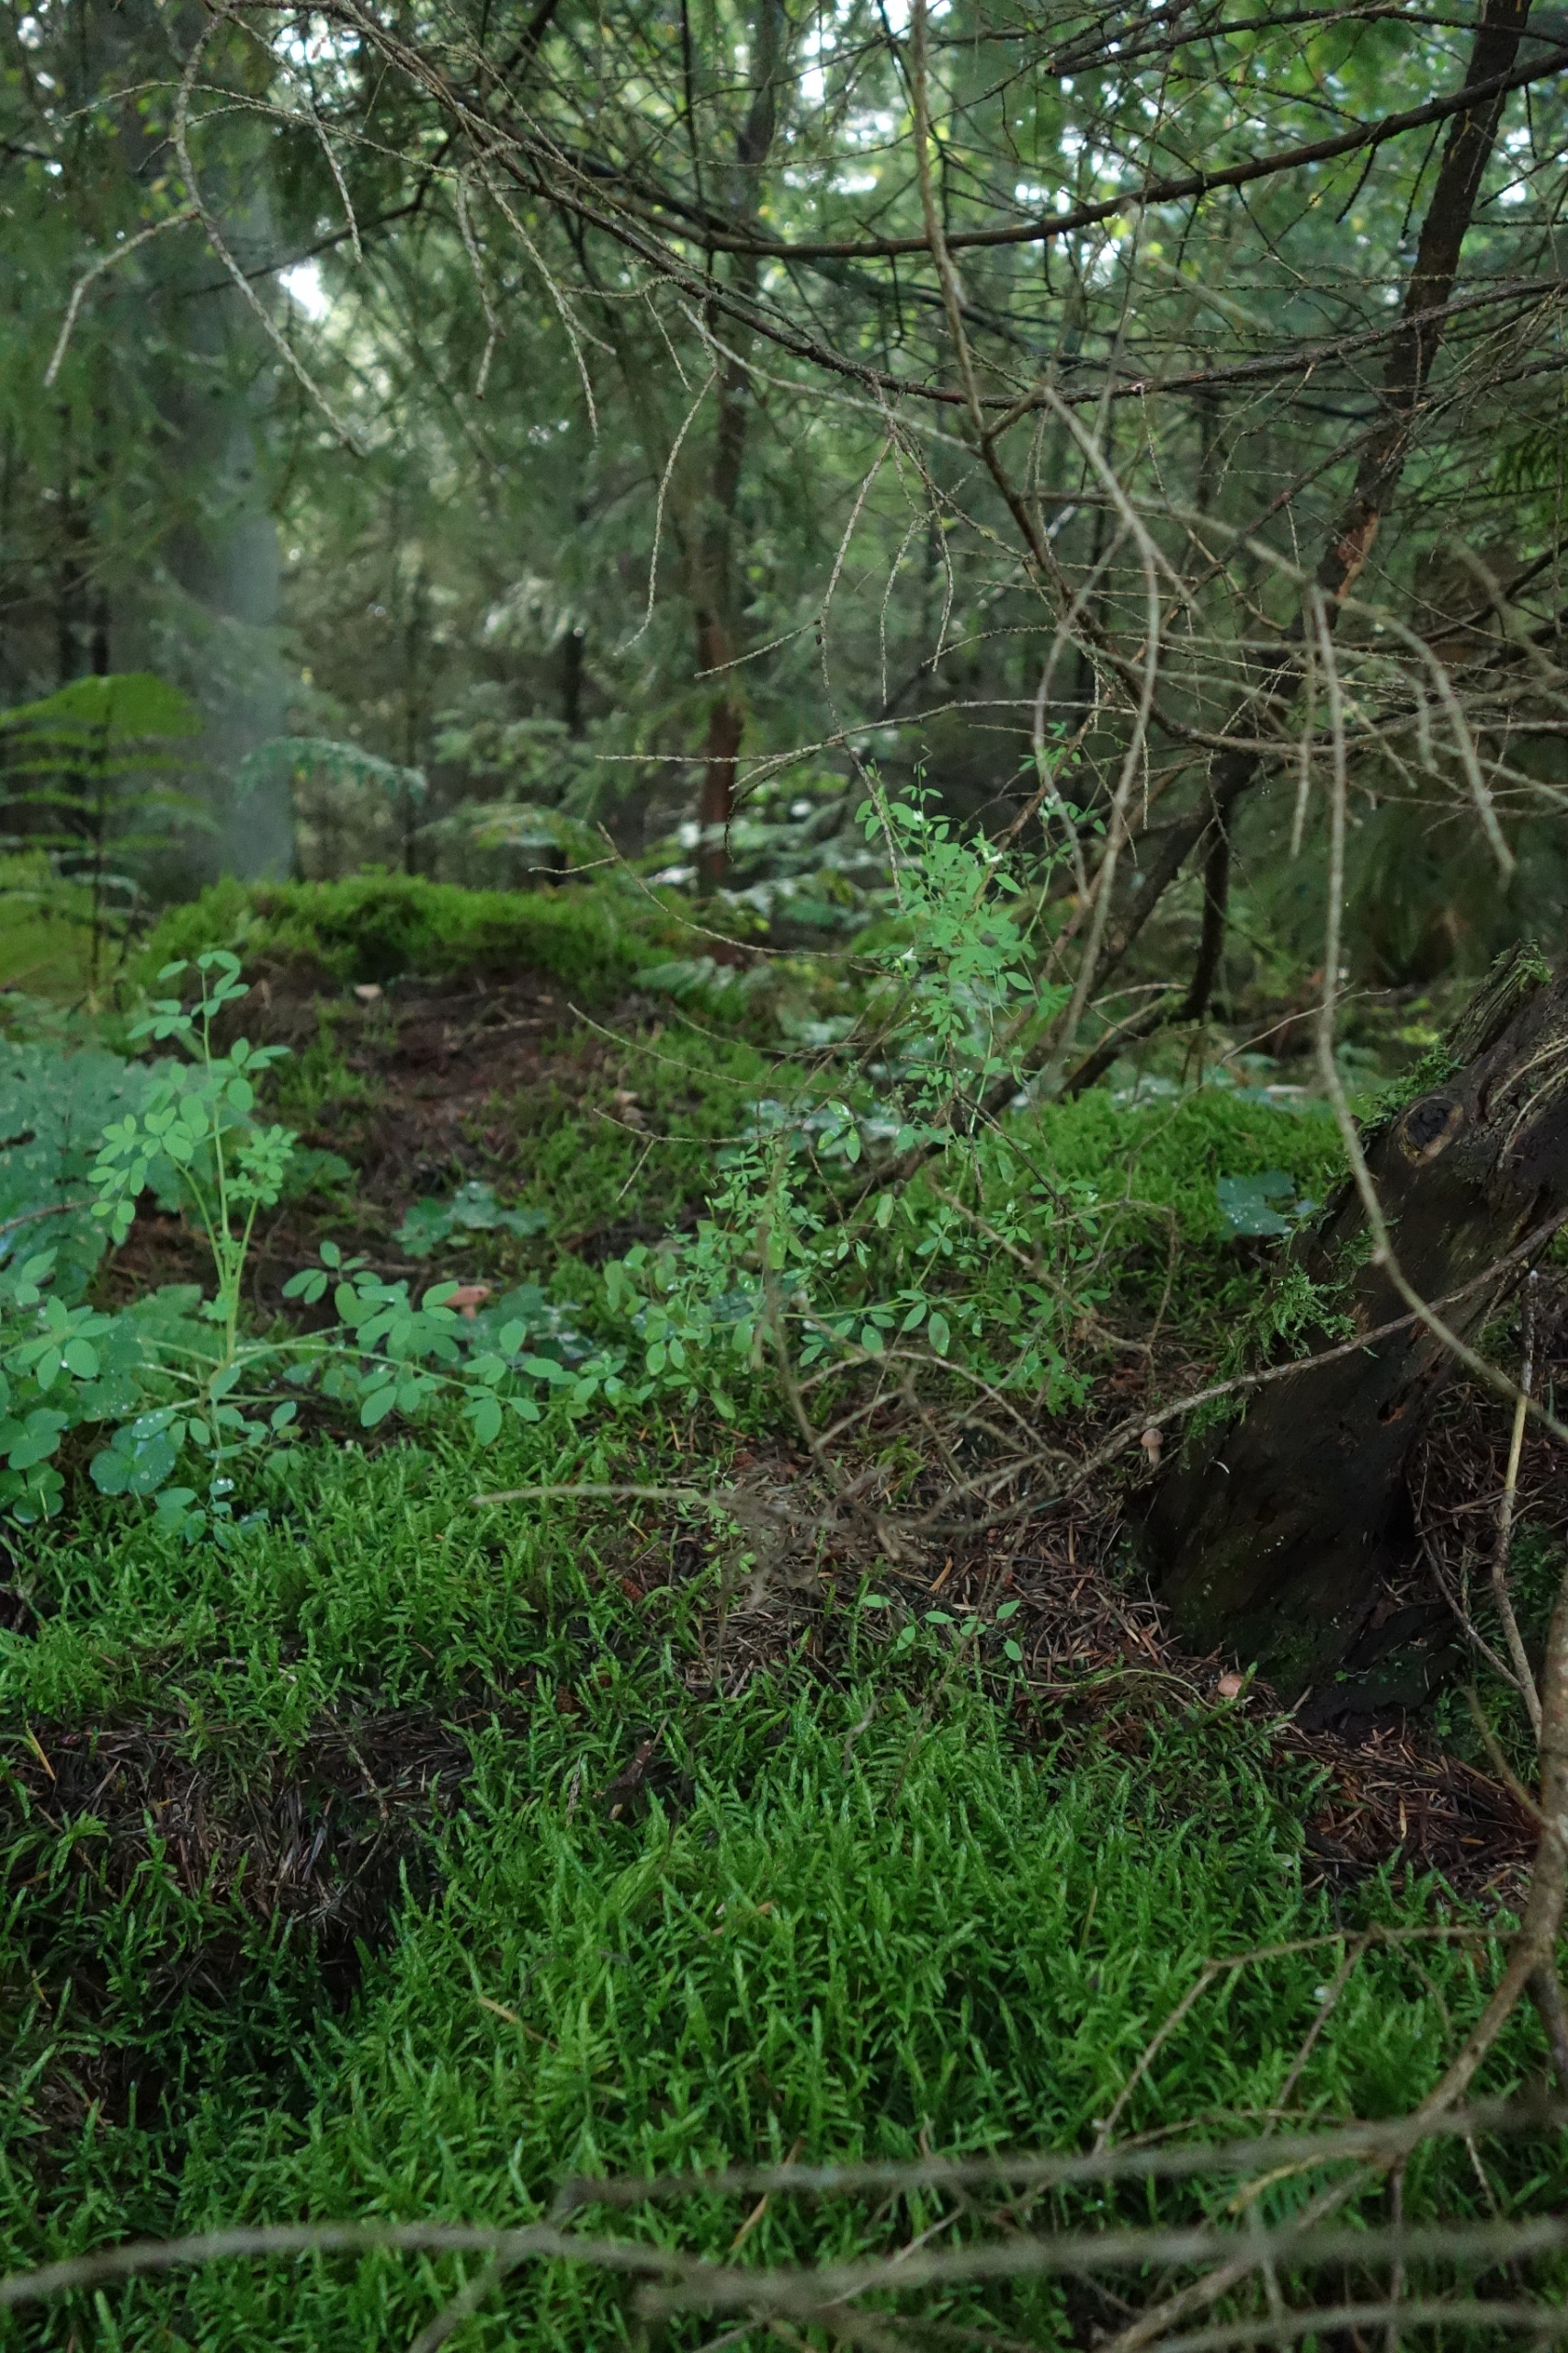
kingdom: Plantae
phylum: Tracheophyta
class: Magnoliopsida
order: Ranunculales
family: Papaveraceae
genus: Ceratocapnos
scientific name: Ceratocapnos claviculata
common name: Klatrende lærkespore
